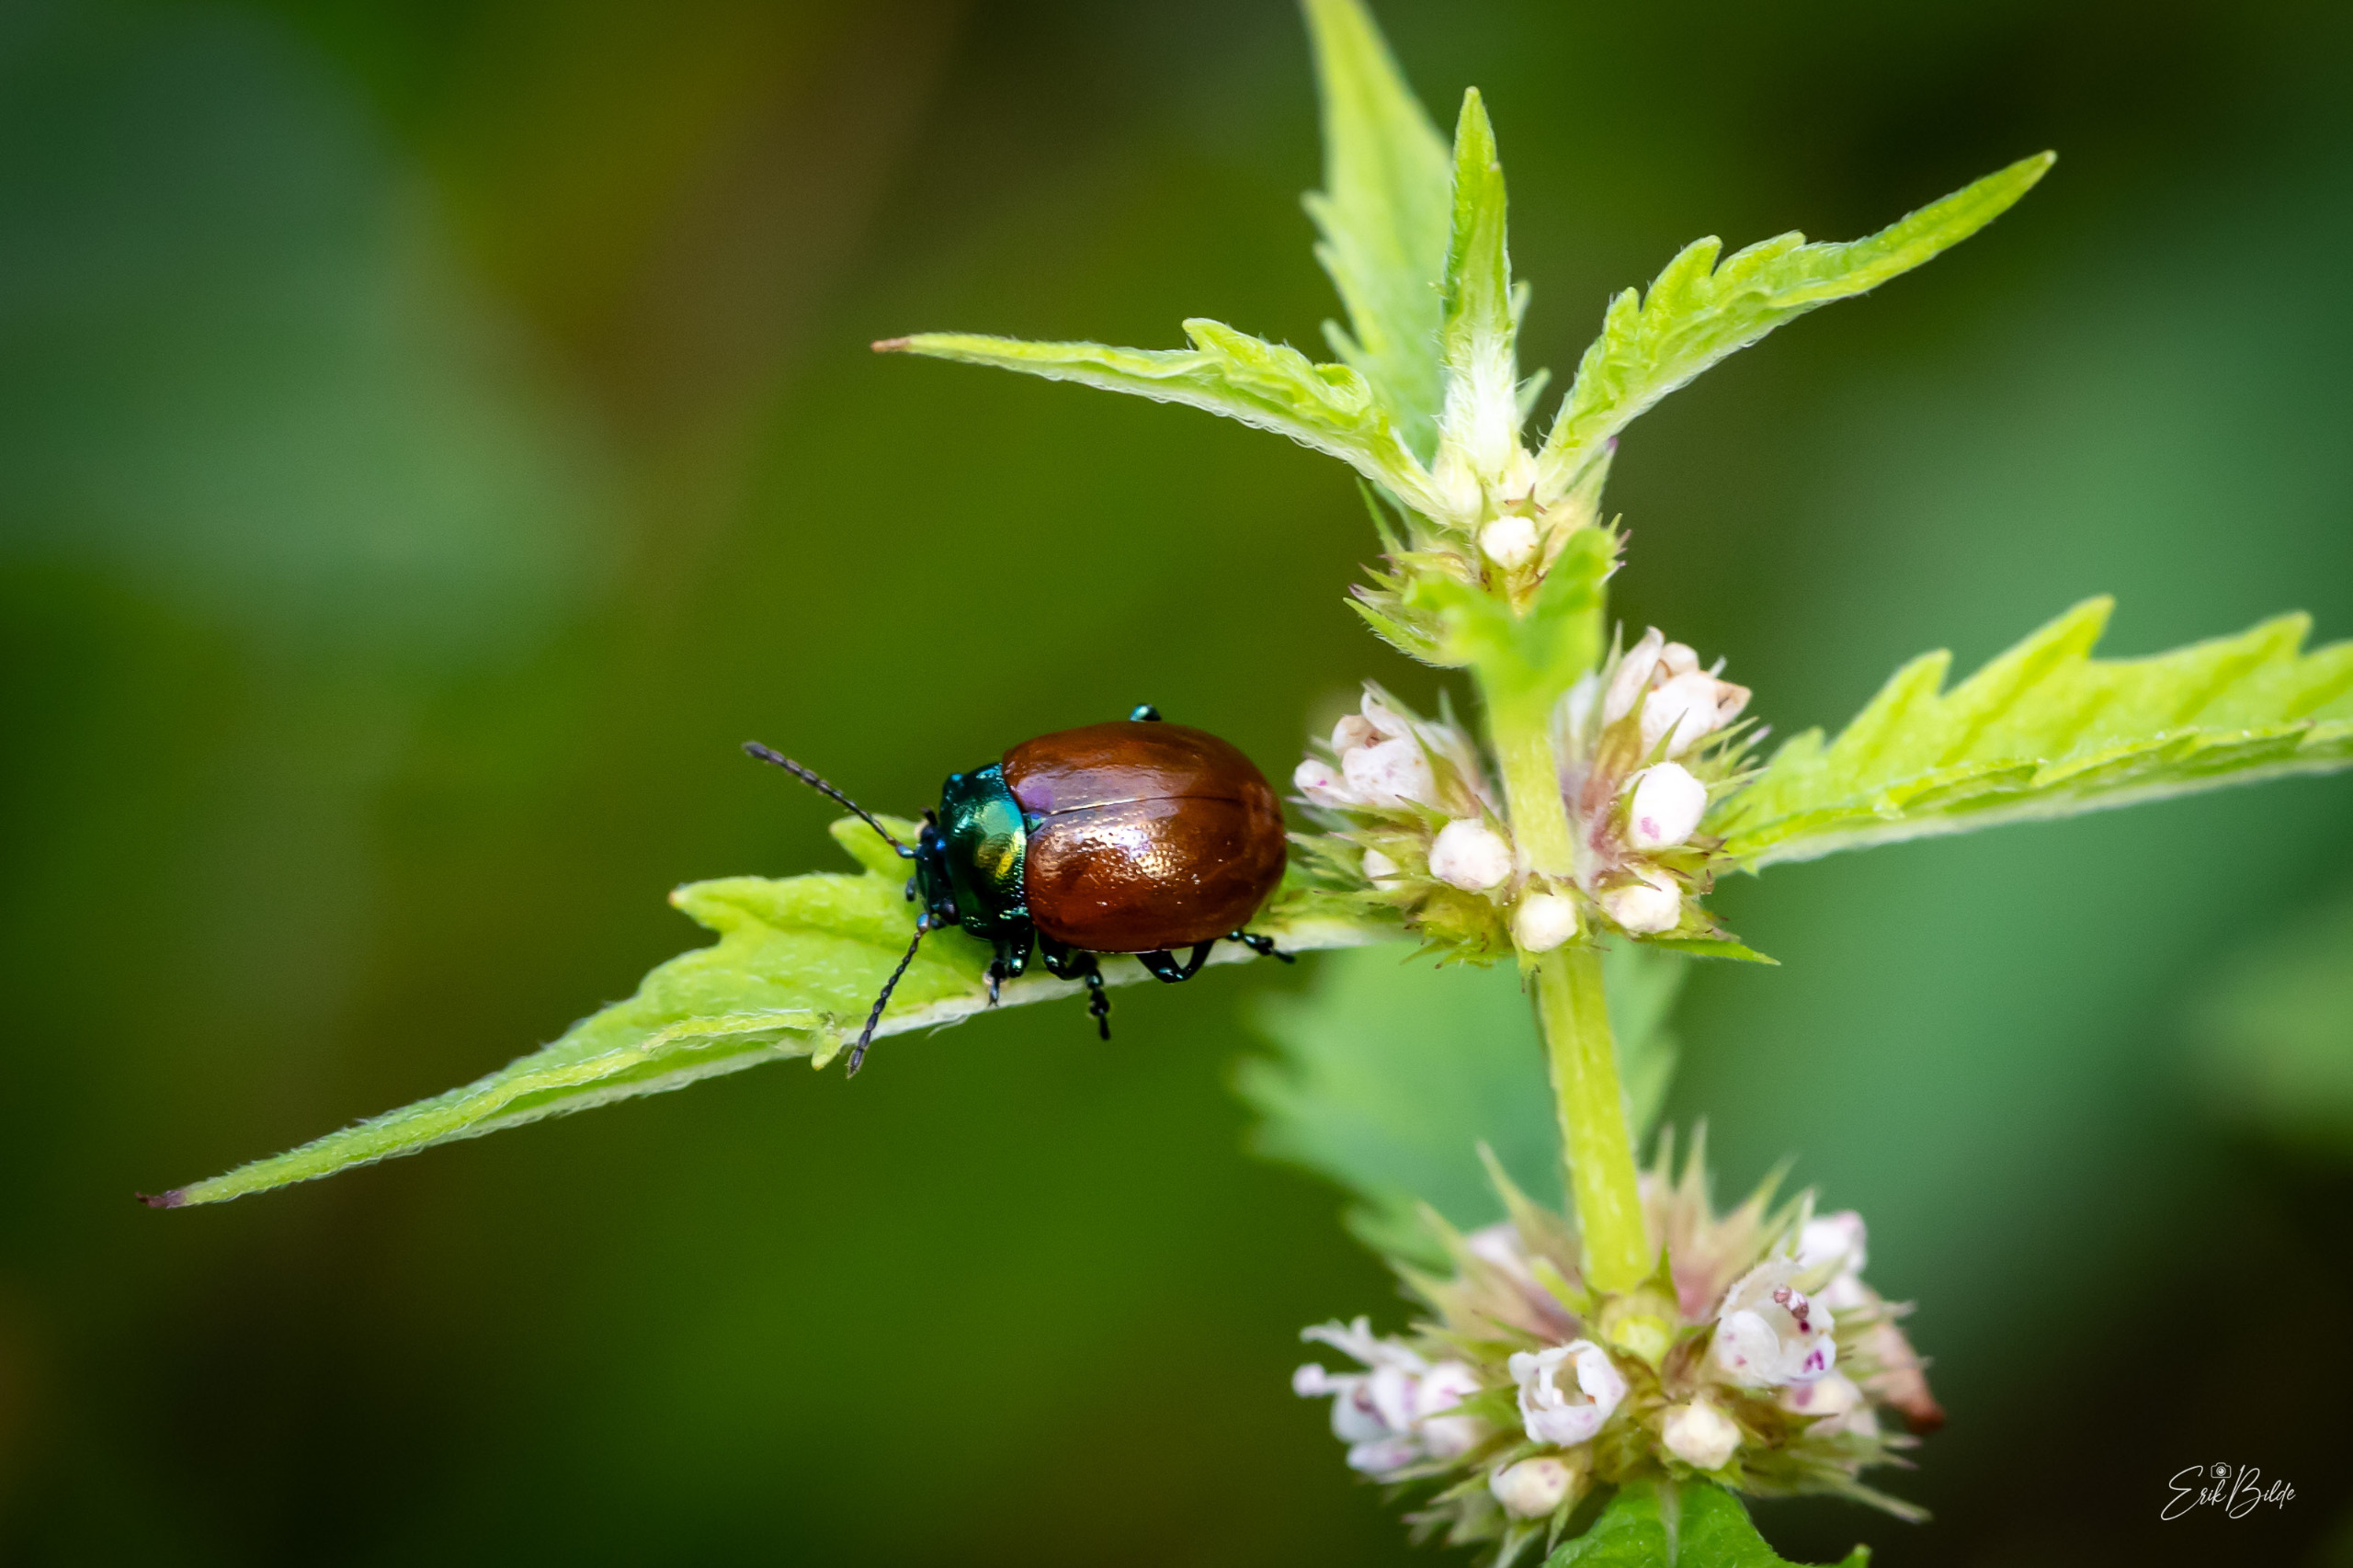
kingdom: Animalia
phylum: Arthropoda
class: Insecta
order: Coleoptera
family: Chrysomelidae
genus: Chrysomela
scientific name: Chrysomela polita
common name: Forskelligfarvet guldbille
